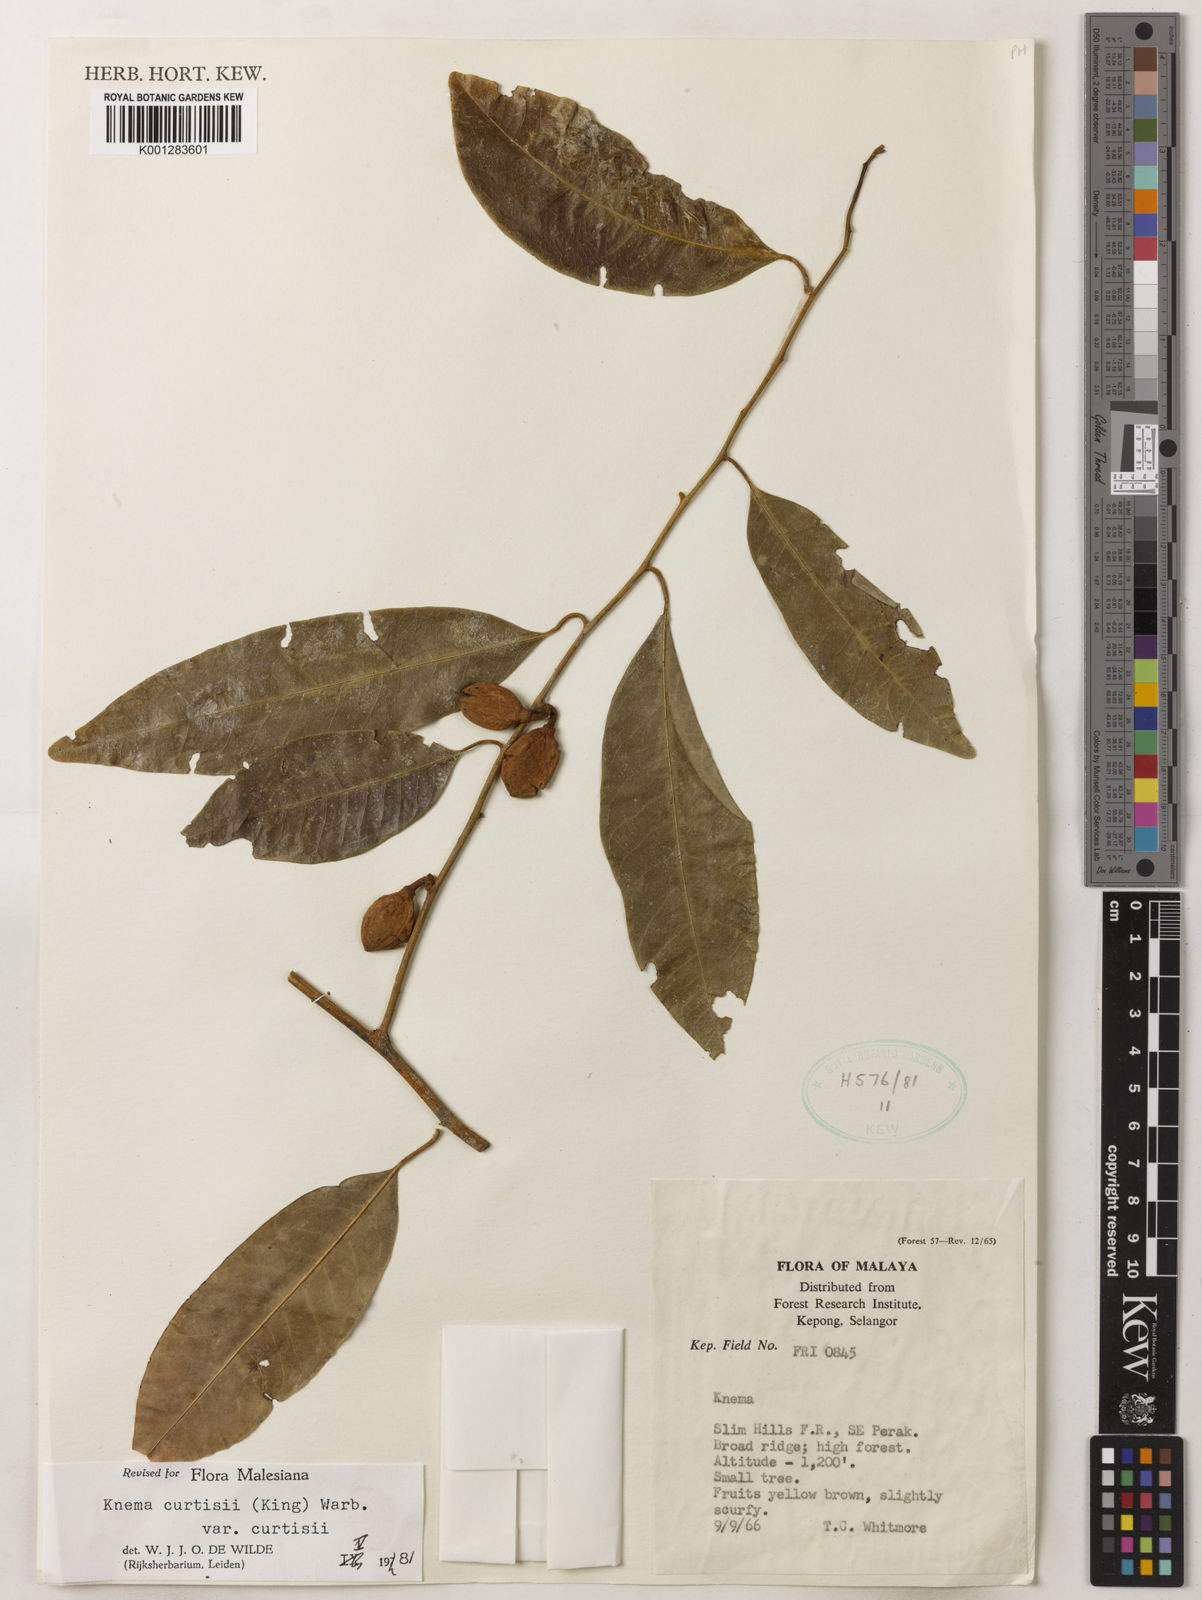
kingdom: Plantae
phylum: Tracheophyta
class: Magnoliopsida
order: Magnoliales
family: Myristicaceae
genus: Knema
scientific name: Knema curtisii
